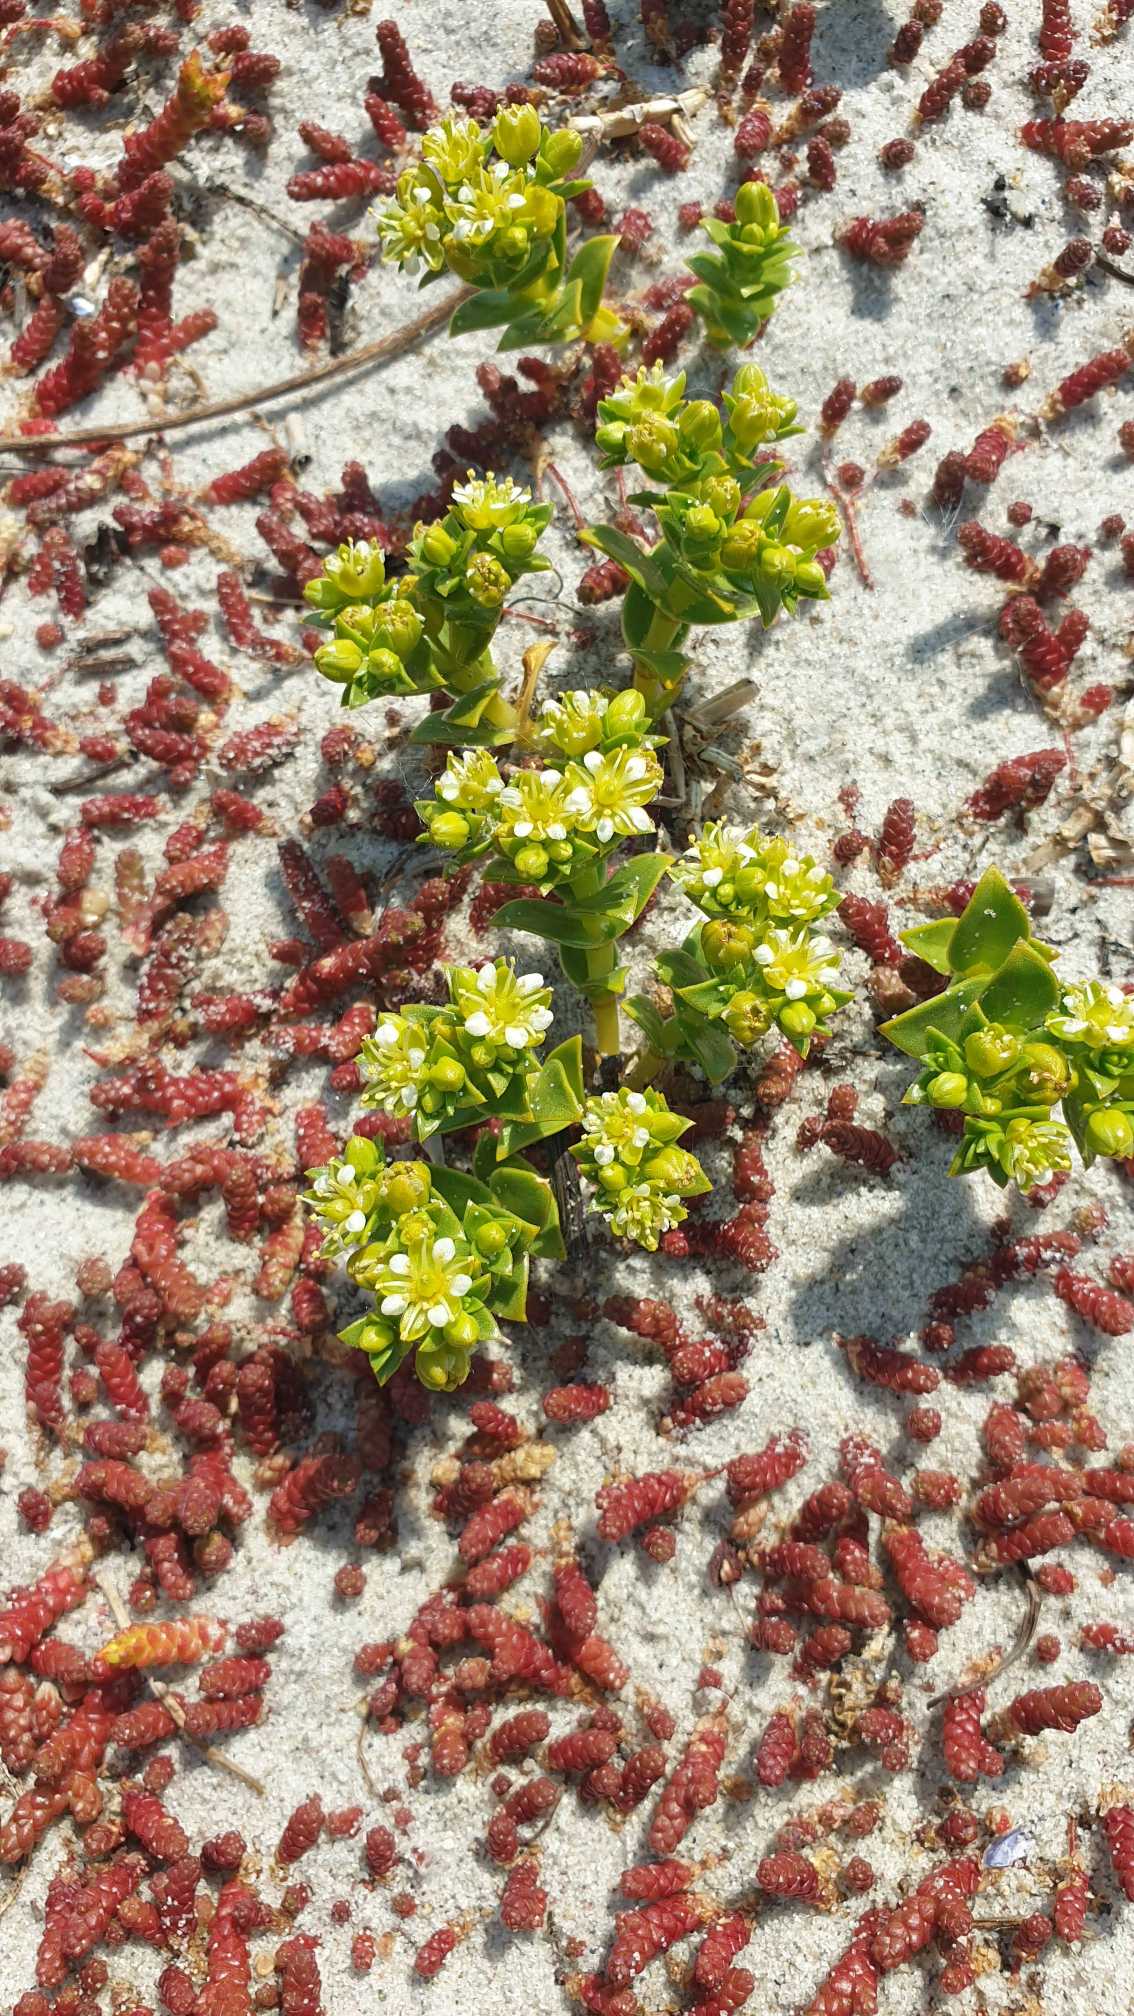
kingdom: Plantae
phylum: Tracheophyta
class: Magnoliopsida
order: Caryophyllales
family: Caryophyllaceae
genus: Honckenya
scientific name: Honckenya peploides
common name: Strandarve
